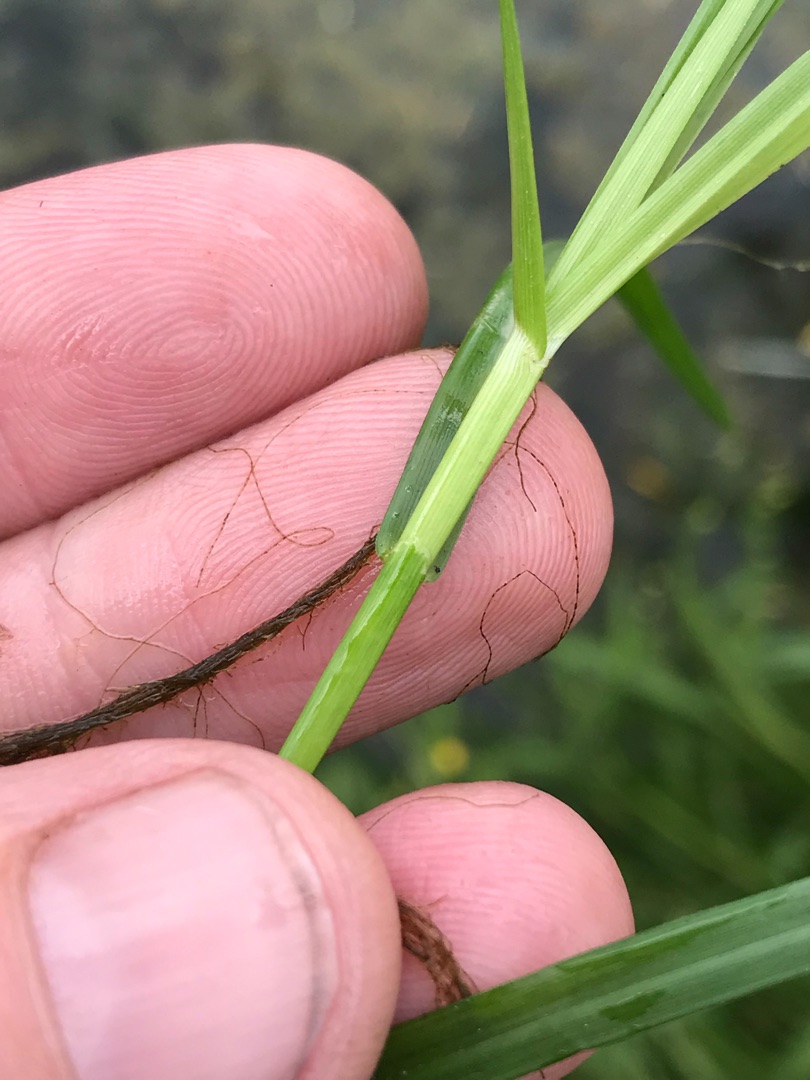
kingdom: Plantae
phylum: Tracheophyta
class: Liliopsida
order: Poales
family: Cyperaceae
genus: Dulichium
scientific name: Dulichium arundinaceum
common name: Vifteaks
